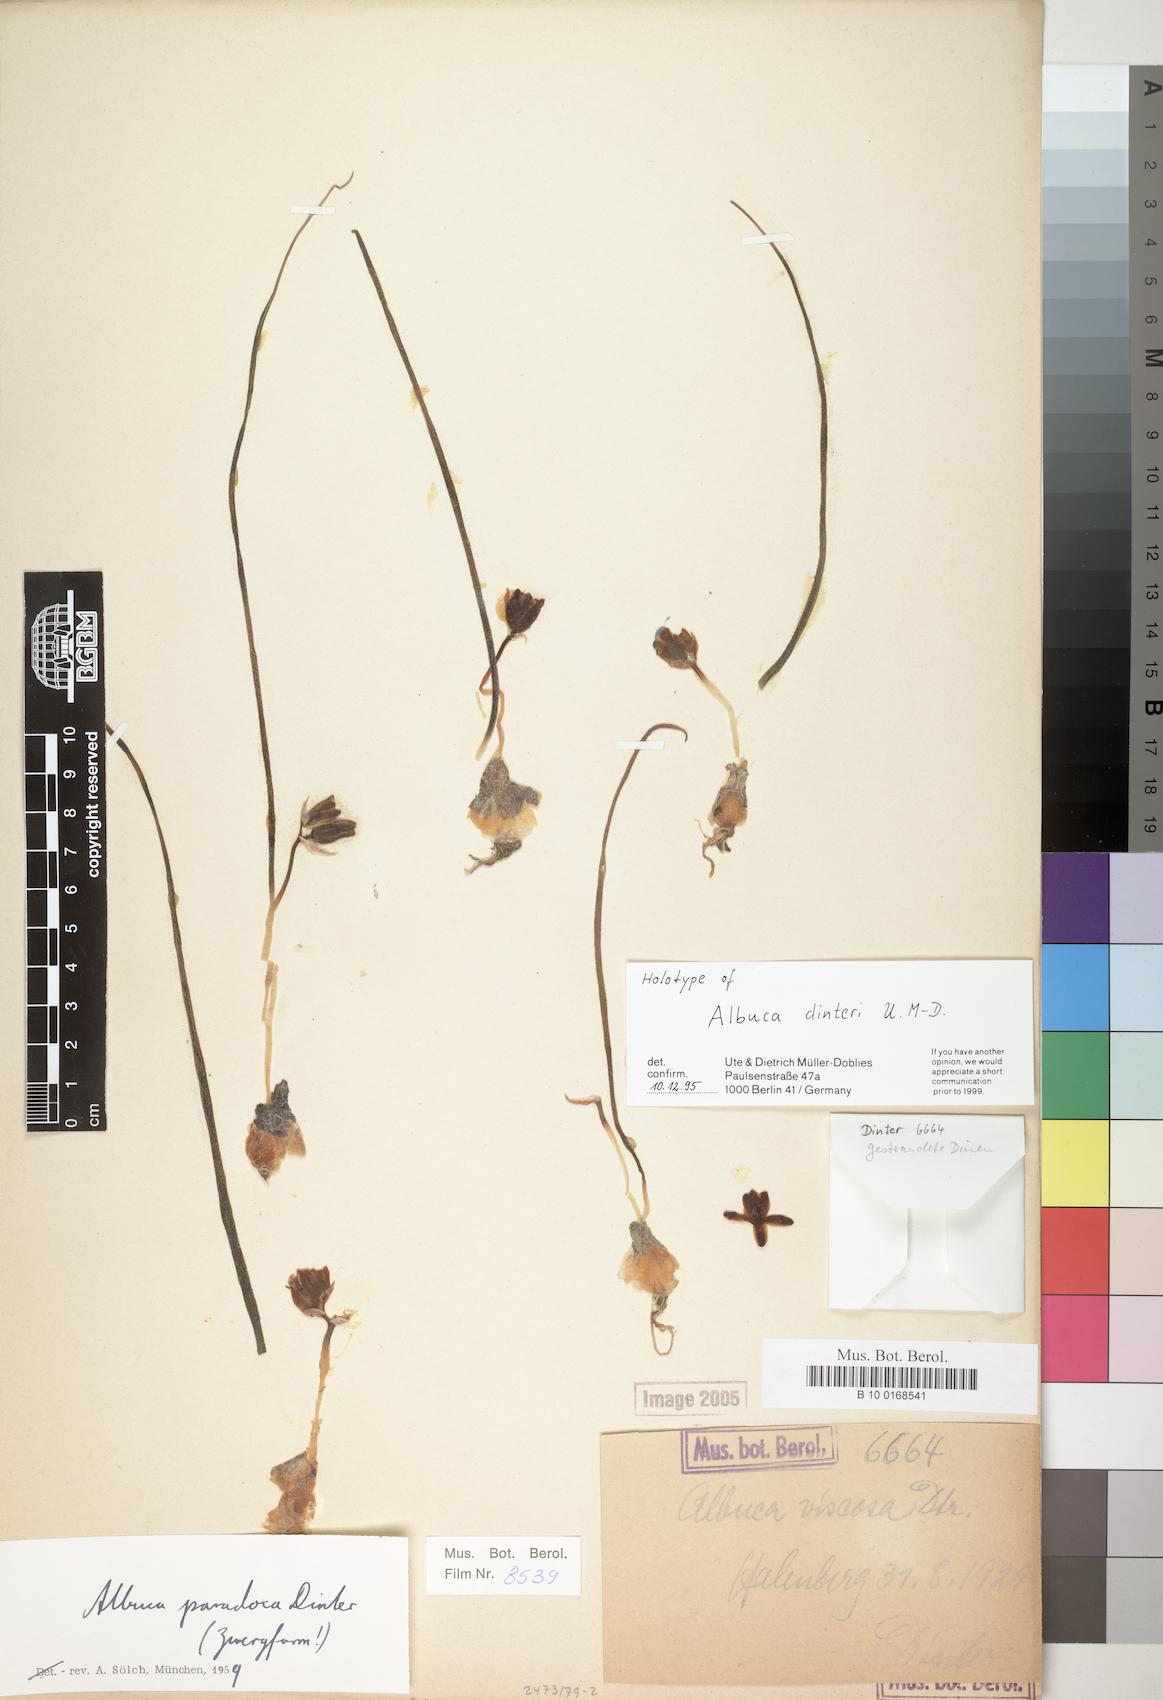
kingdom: Plantae
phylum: Tracheophyta
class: Liliopsida
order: Asparagales
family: Asparagaceae
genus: Albuca
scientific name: Albuca dinteri
